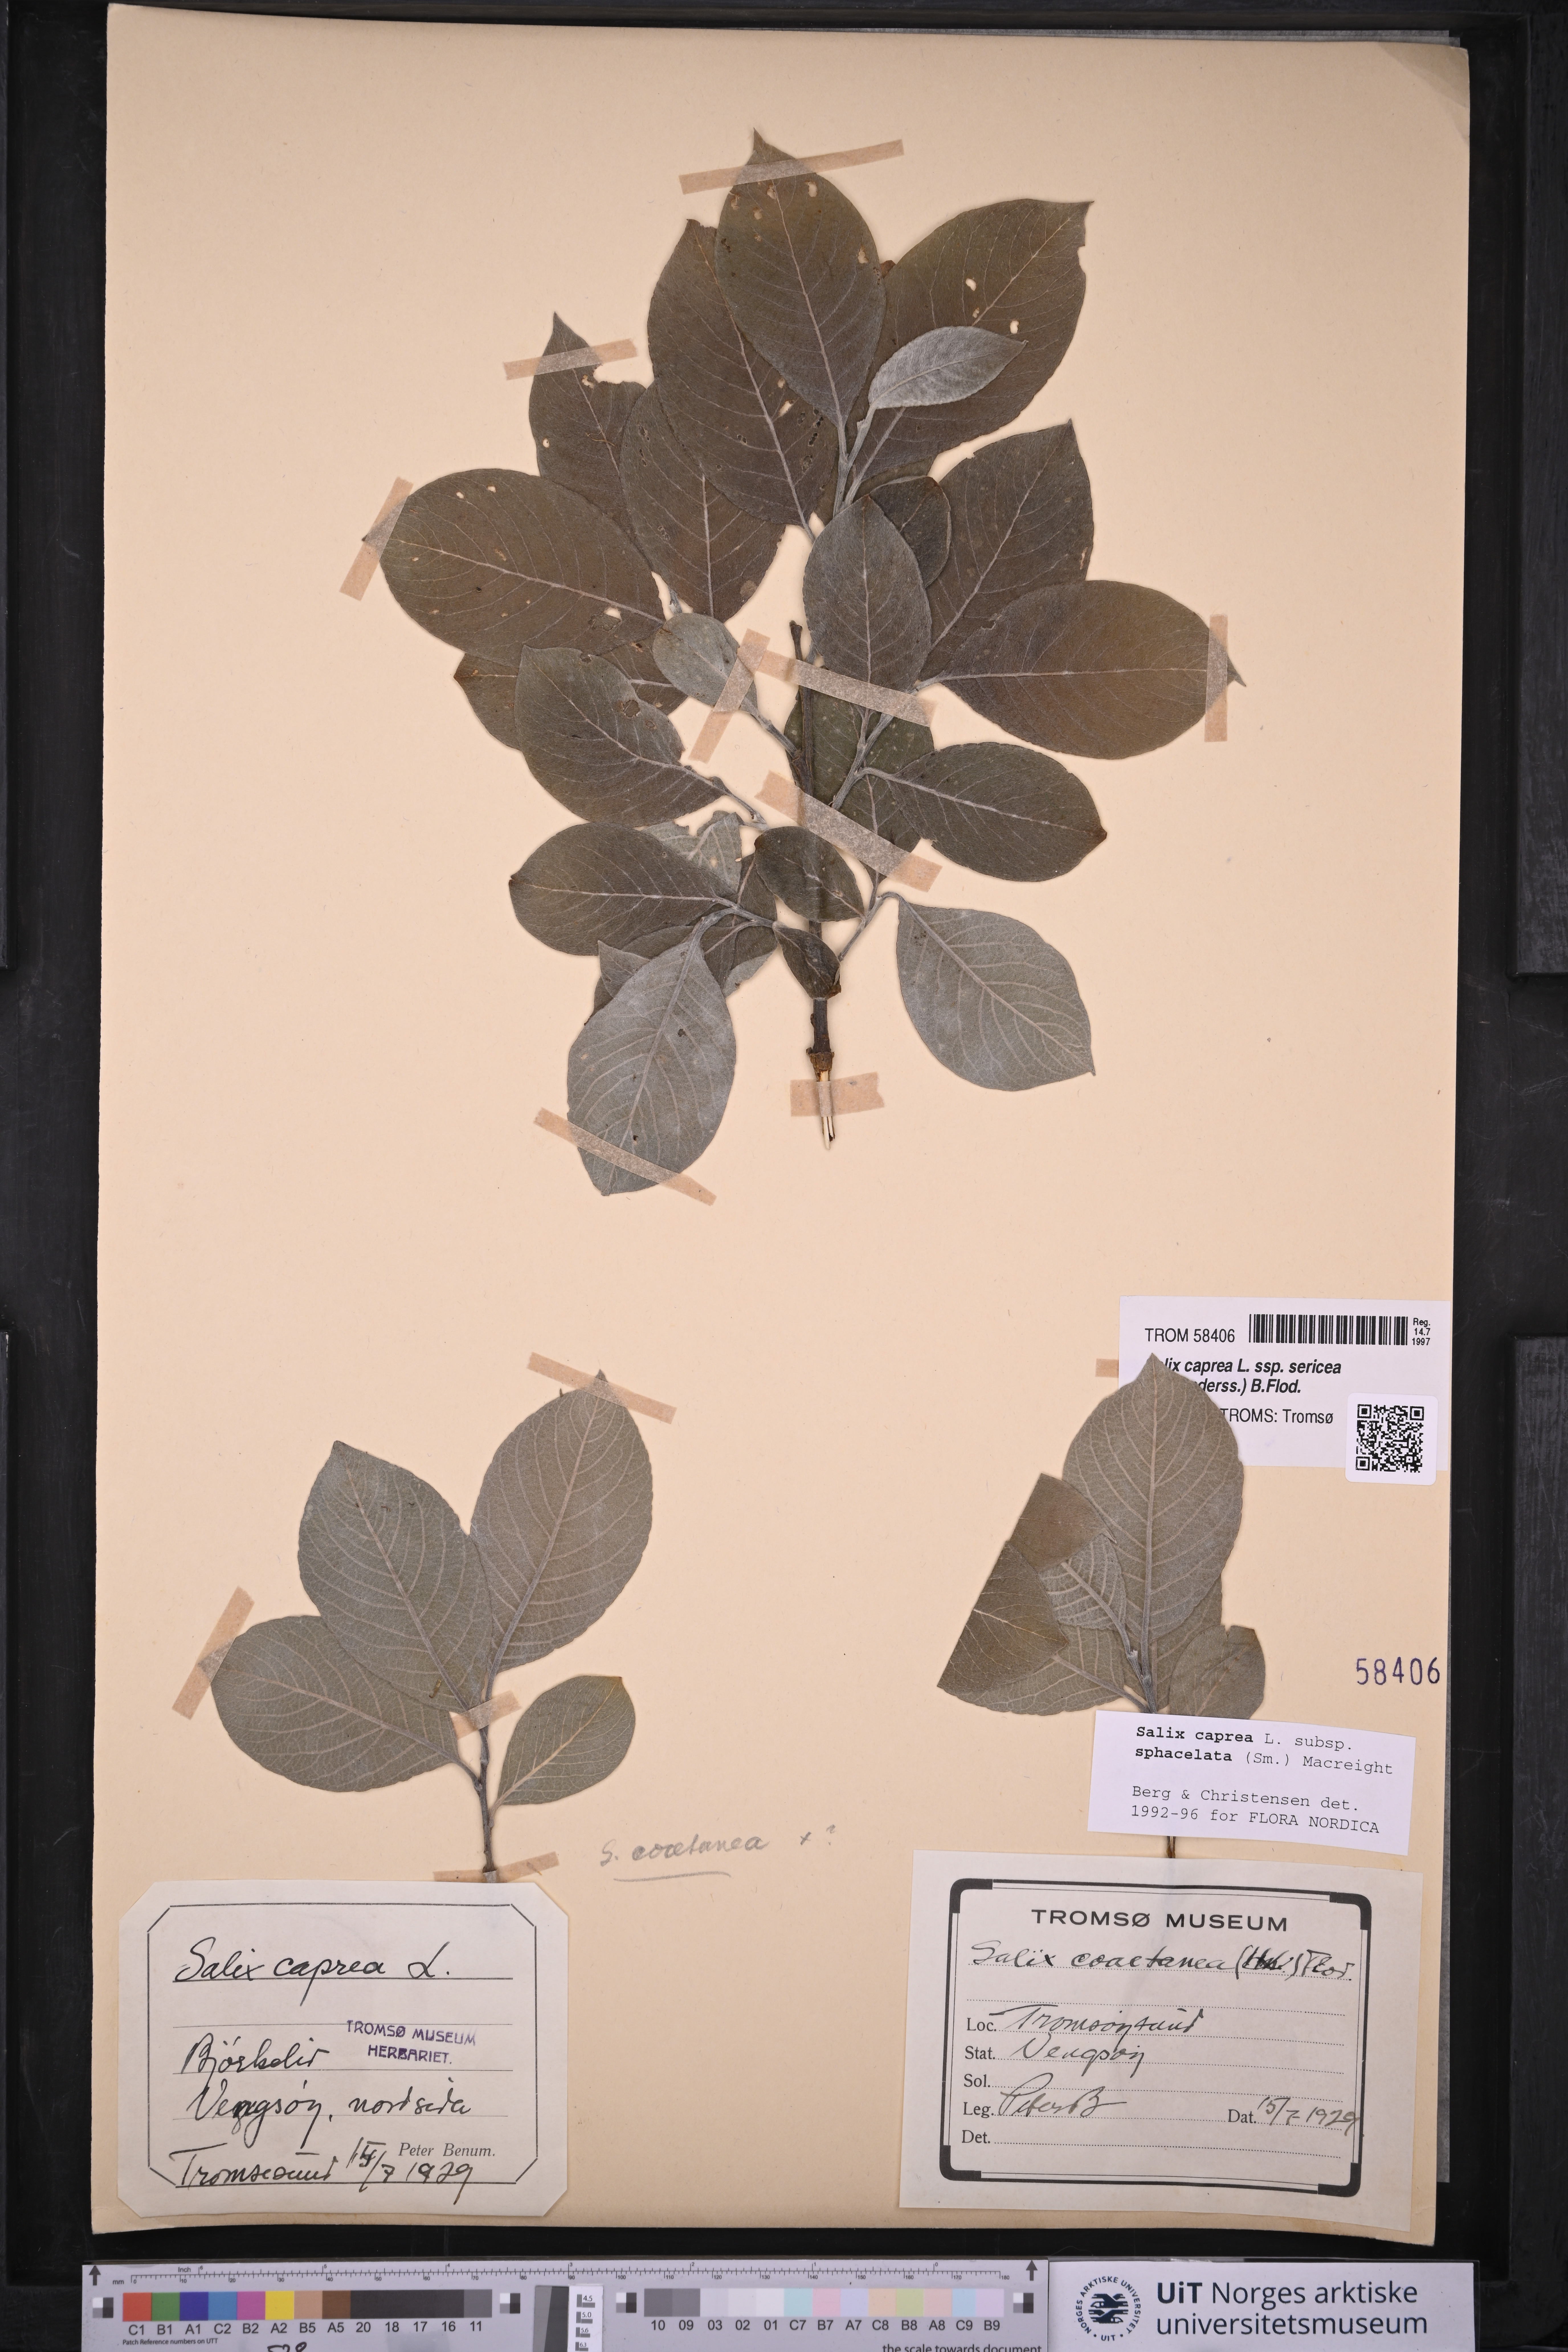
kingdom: Plantae
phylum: Tracheophyta
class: Magnoliopsida
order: Malpighiales
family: Salicaceae
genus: Salix
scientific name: Salix caprea
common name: Goat willow
